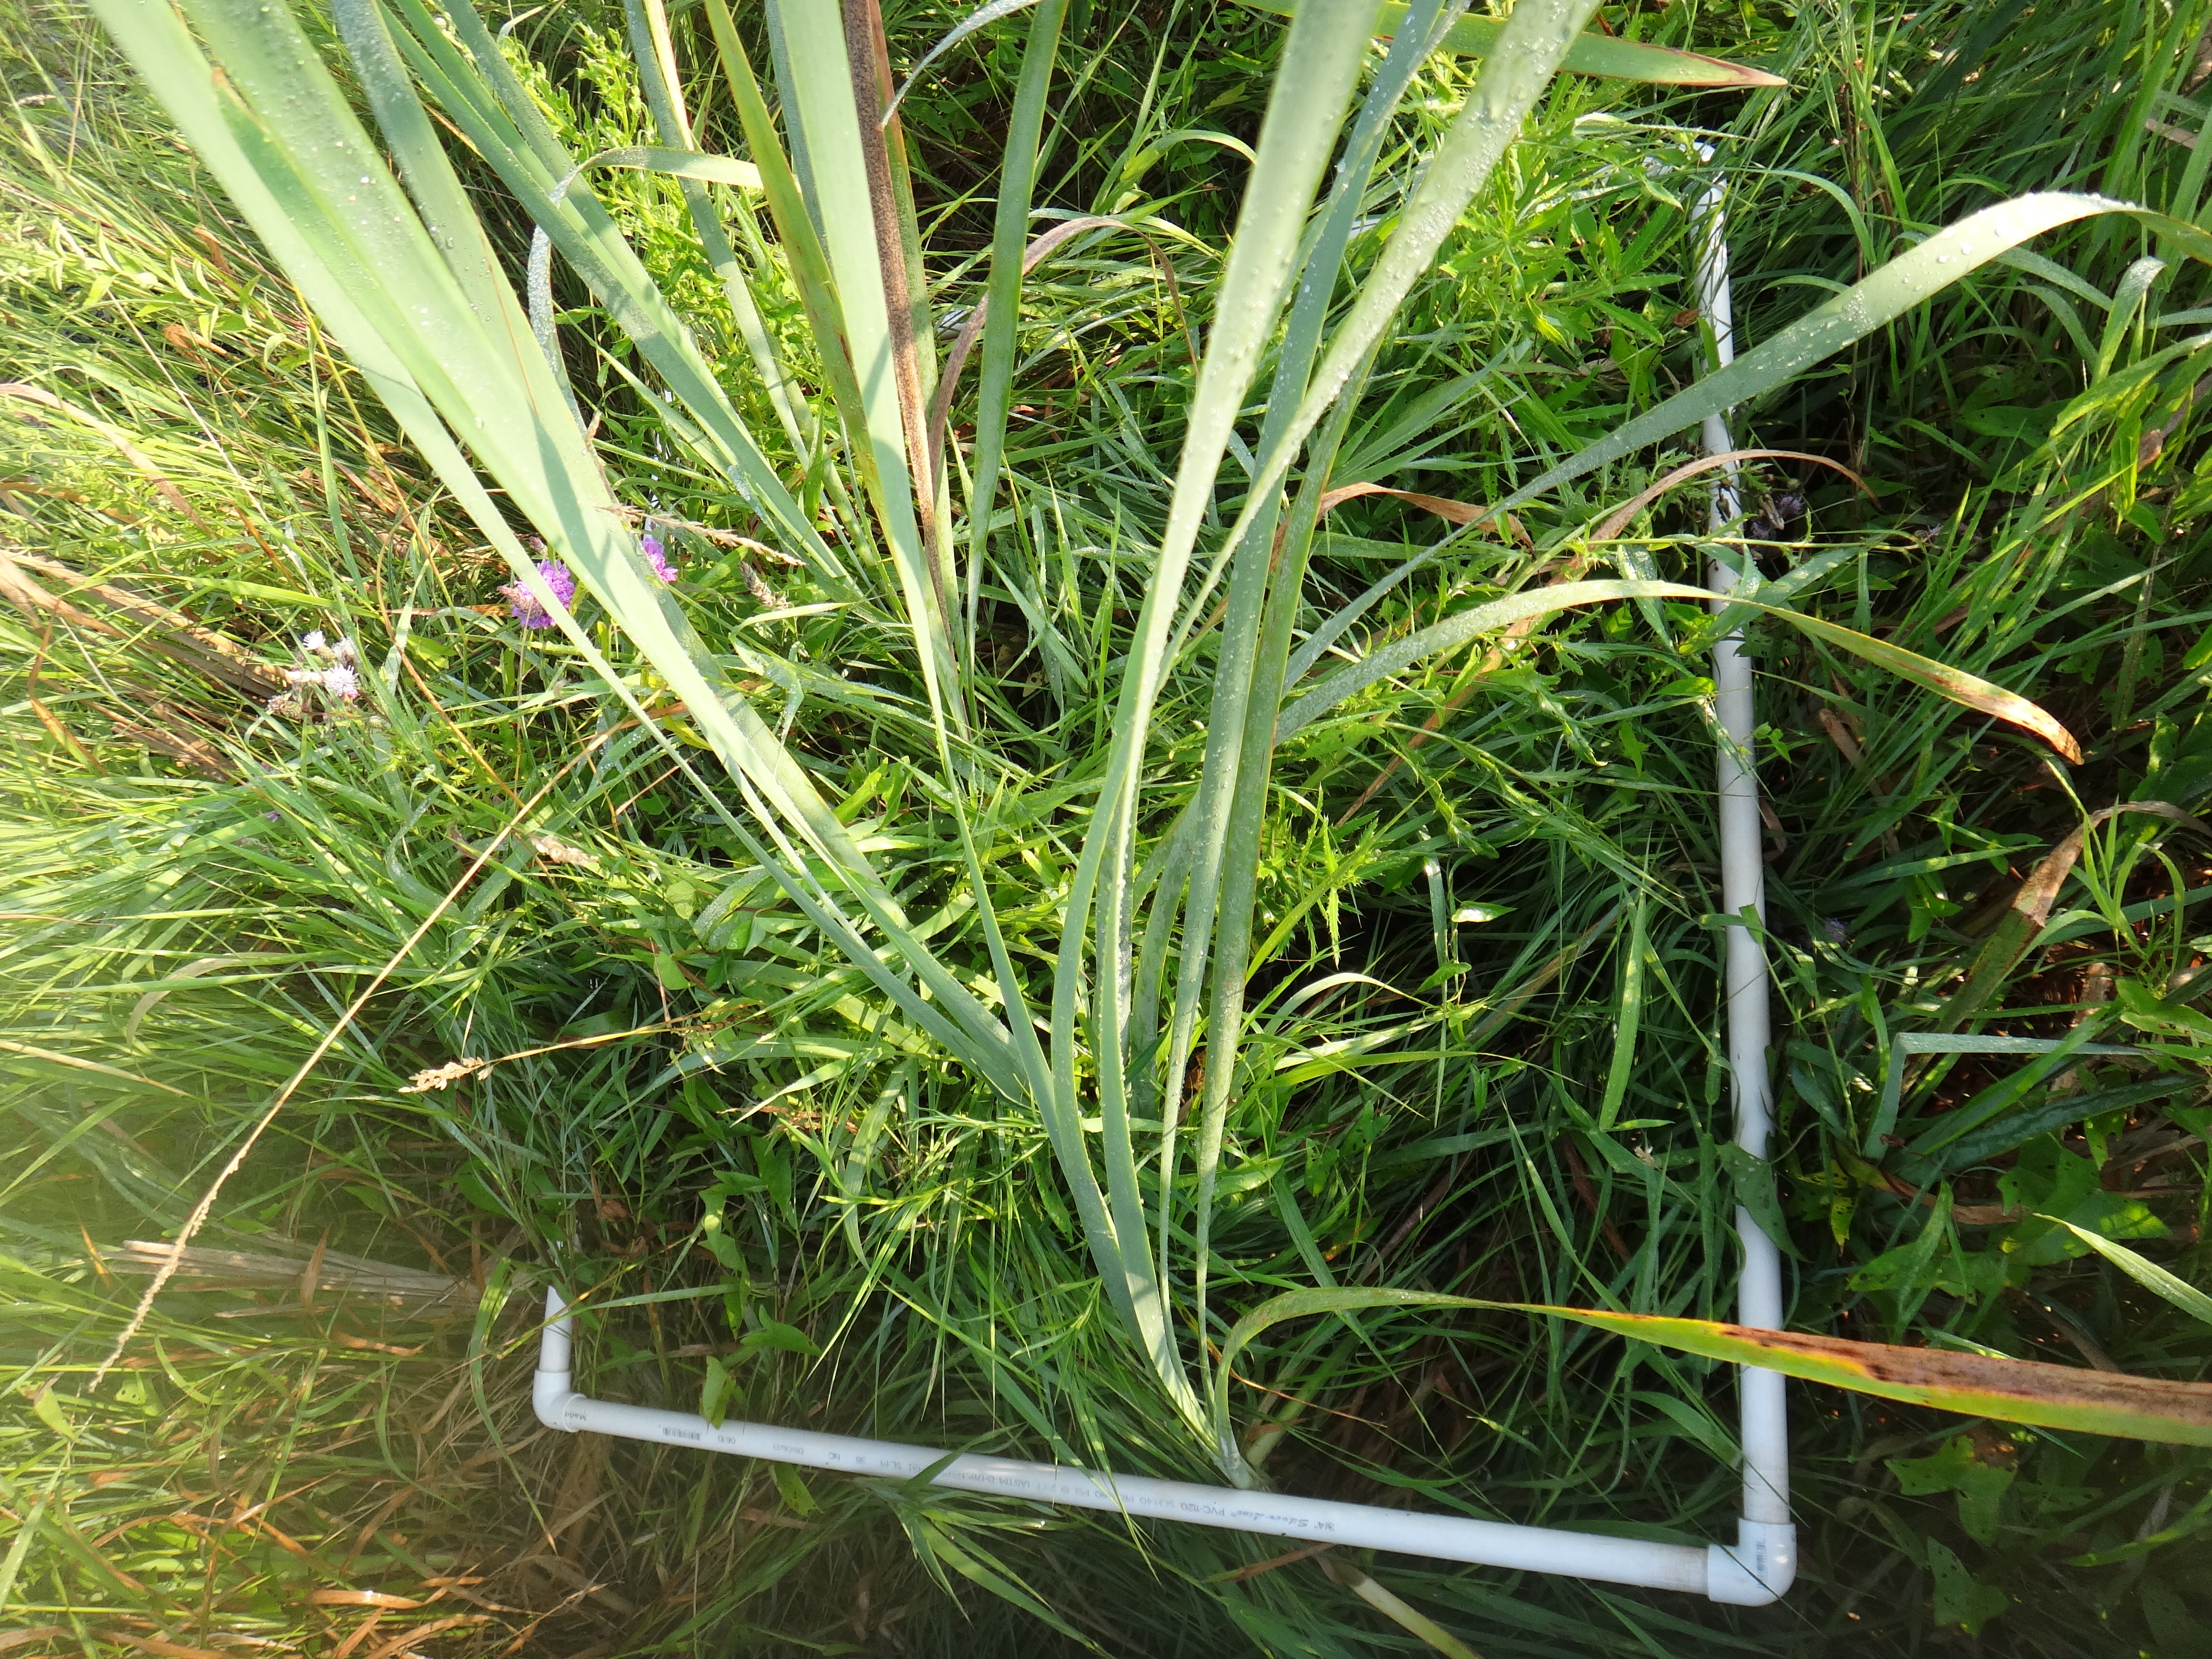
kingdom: Plantae
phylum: Tracheophyta
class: Magnoliopsida
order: Asterales
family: Campanulaceae
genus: Palustricodon
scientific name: Palustricodon aparinoides
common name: Bedstraw bellflower
